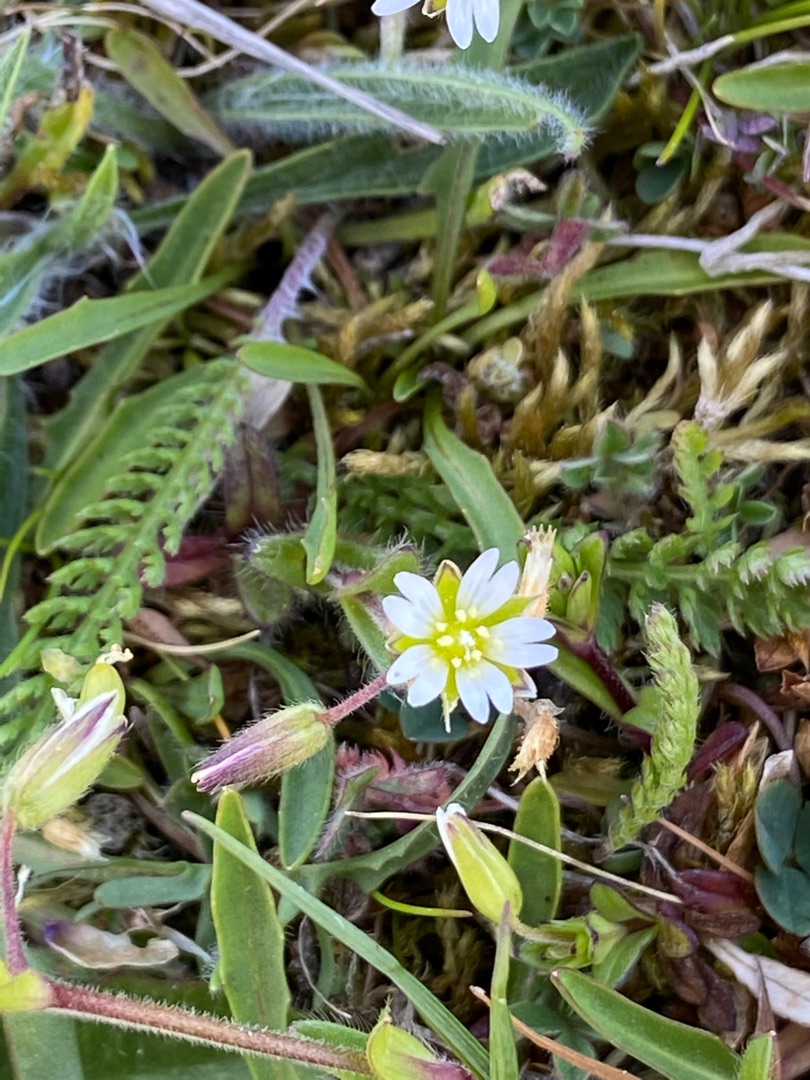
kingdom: Plantae
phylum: Tracheophyta
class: Magnoliopsida
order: Caryophyllales
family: Caryophyllaceae
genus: Cerastium
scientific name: Cerastium fontanum
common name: Almindelig hønsetarm
